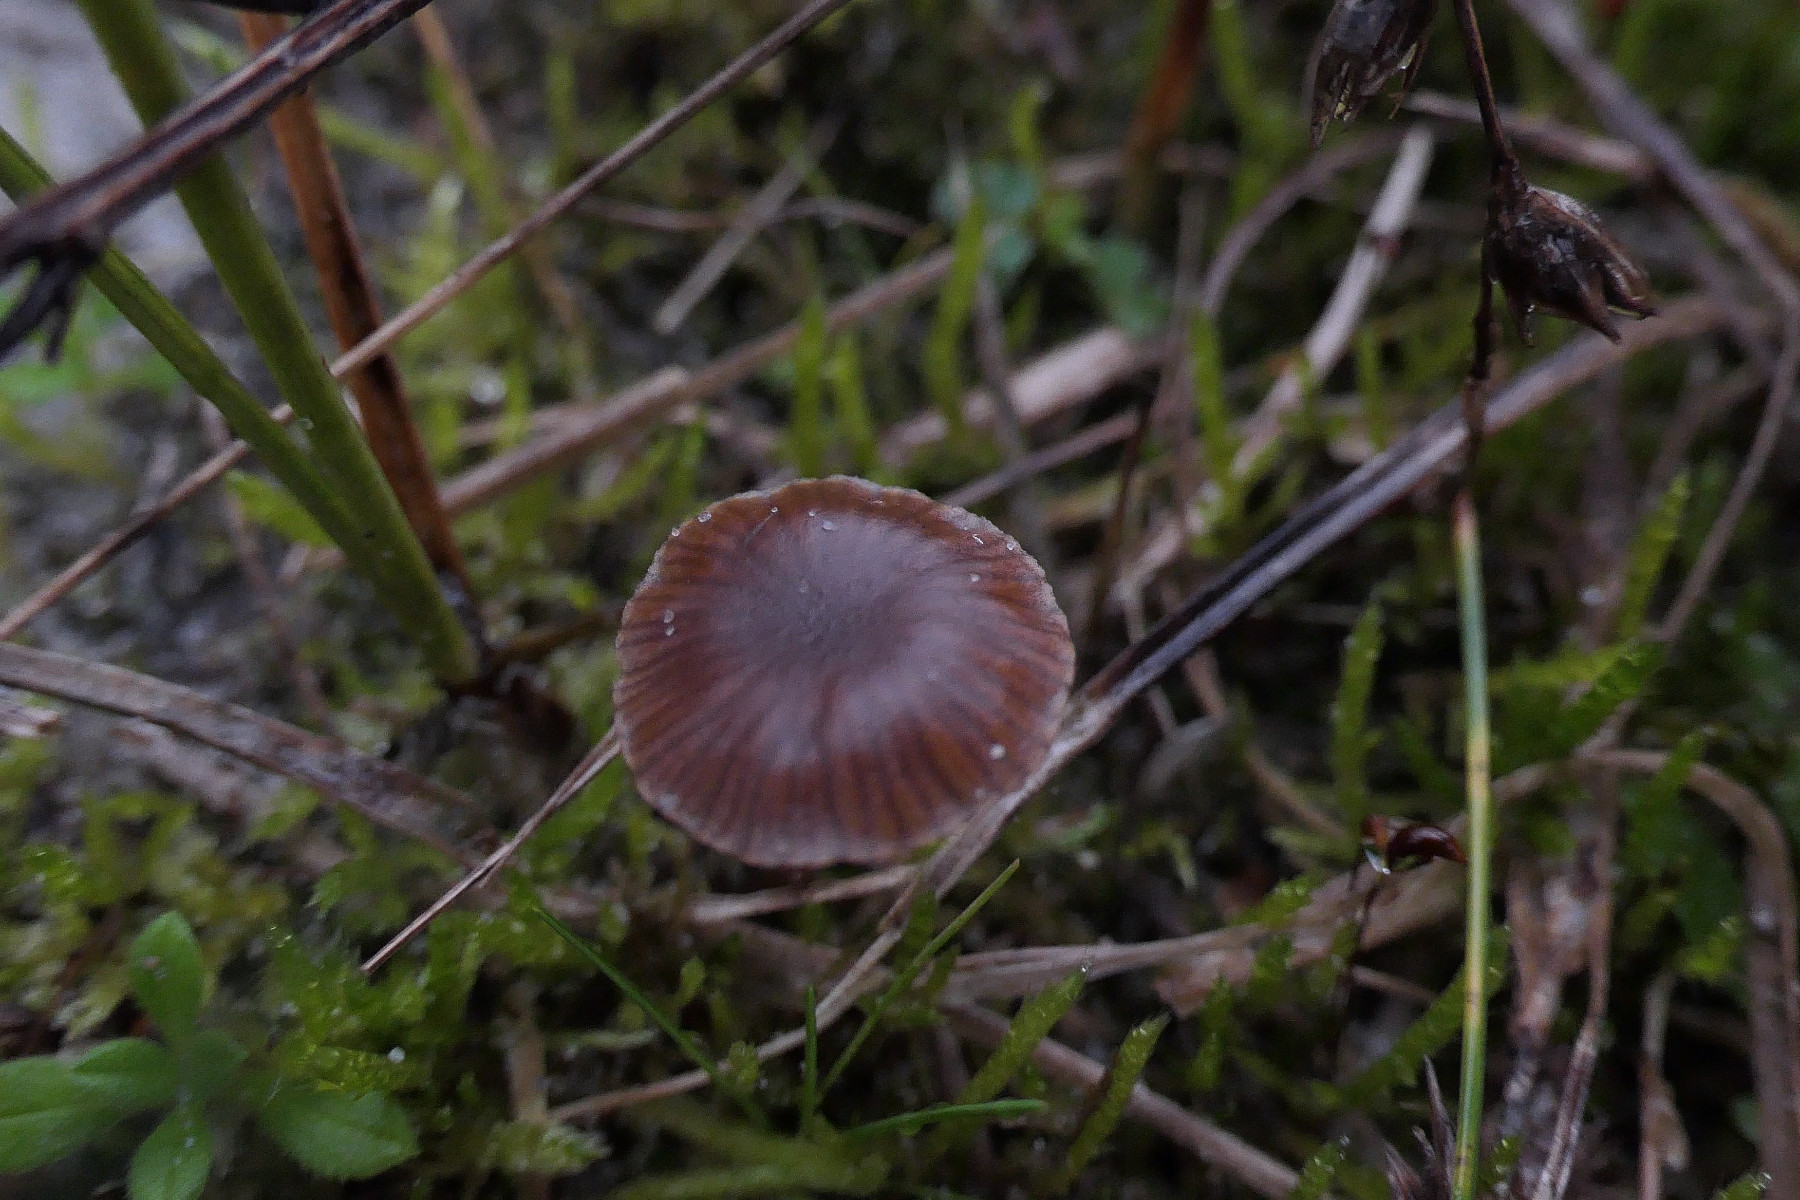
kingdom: Fungi
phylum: Basidiomycota
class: Agaricomycetes
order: Agaricales
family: Strophariaceae
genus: Deconica
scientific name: Deconica montana
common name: rødbrun stråhat
